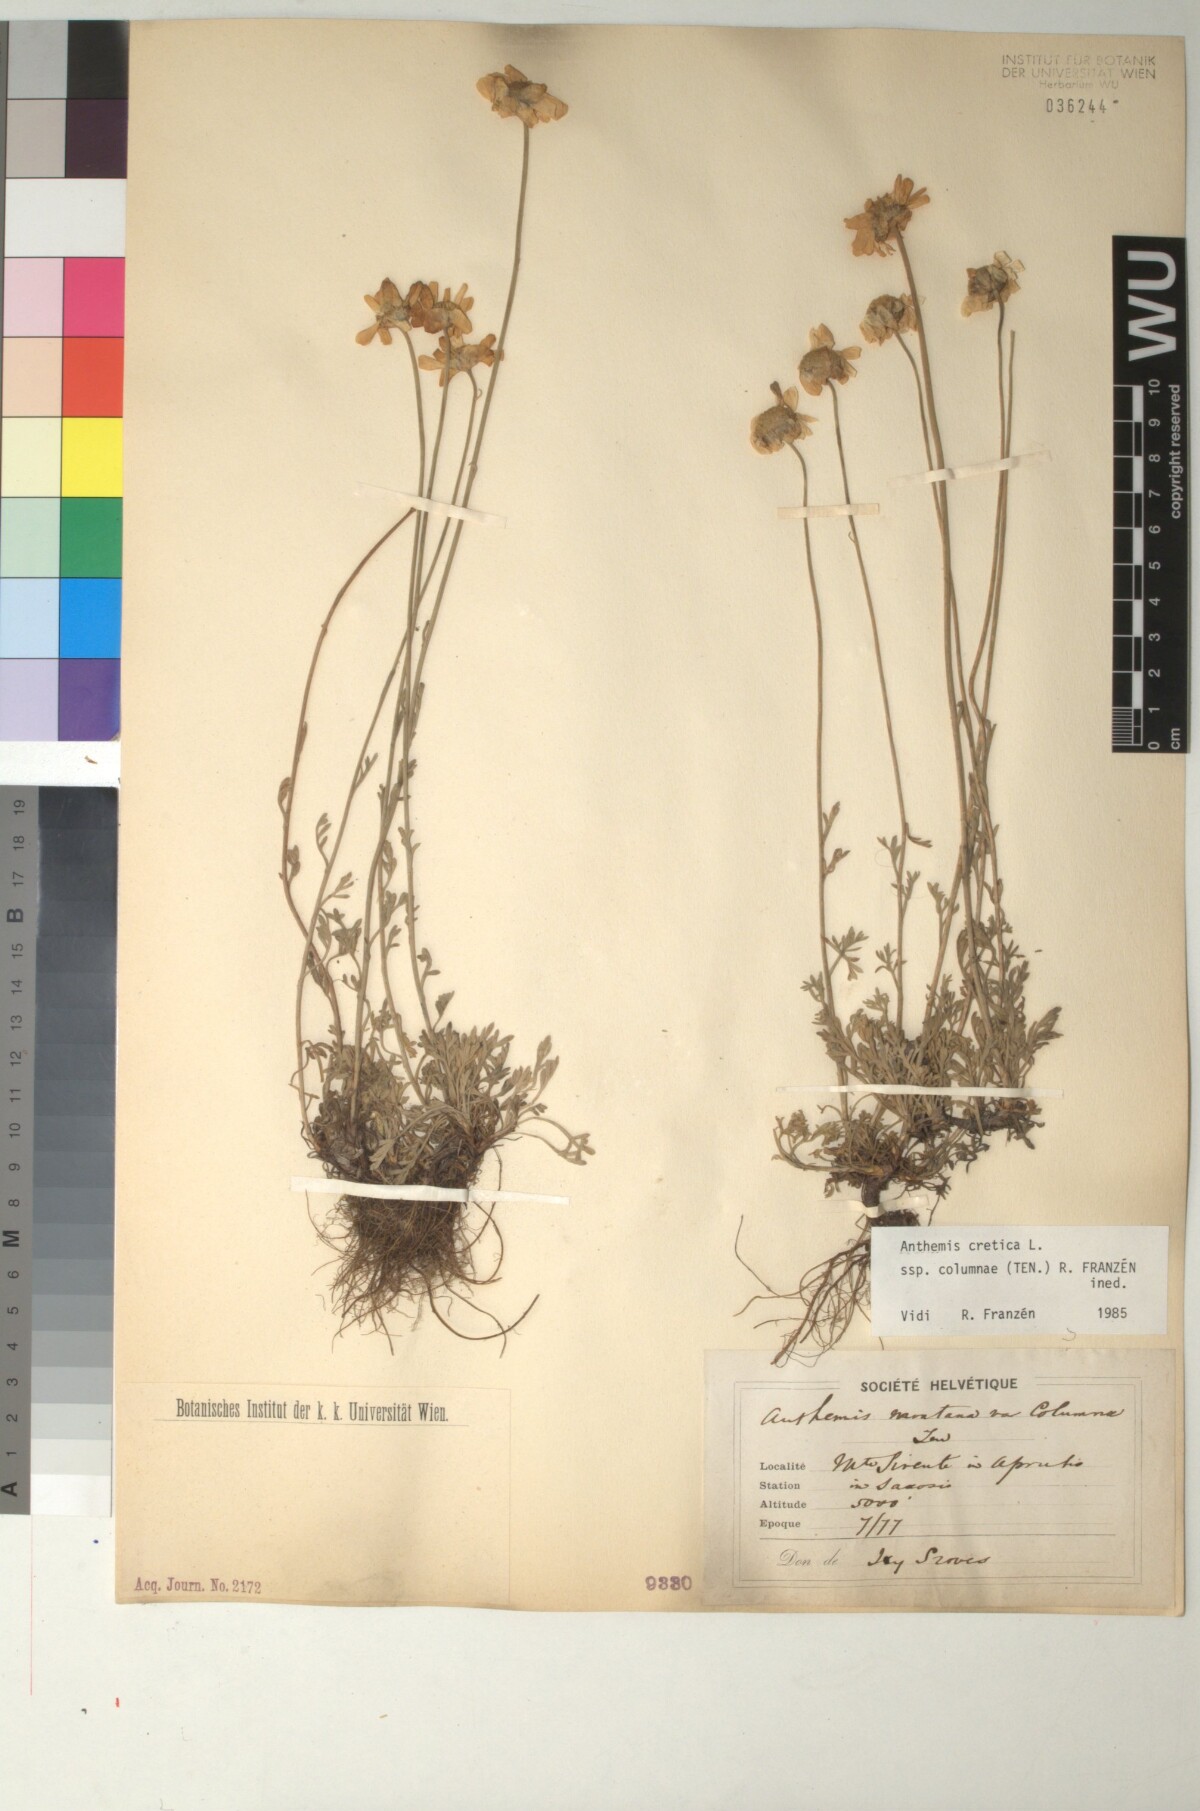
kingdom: Plantae
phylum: Tracheophyta
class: Magnoliopsida
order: Asterales
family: Asteraceae
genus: Anthemis
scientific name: Anthemis cretica
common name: Mountain dog-daisy
